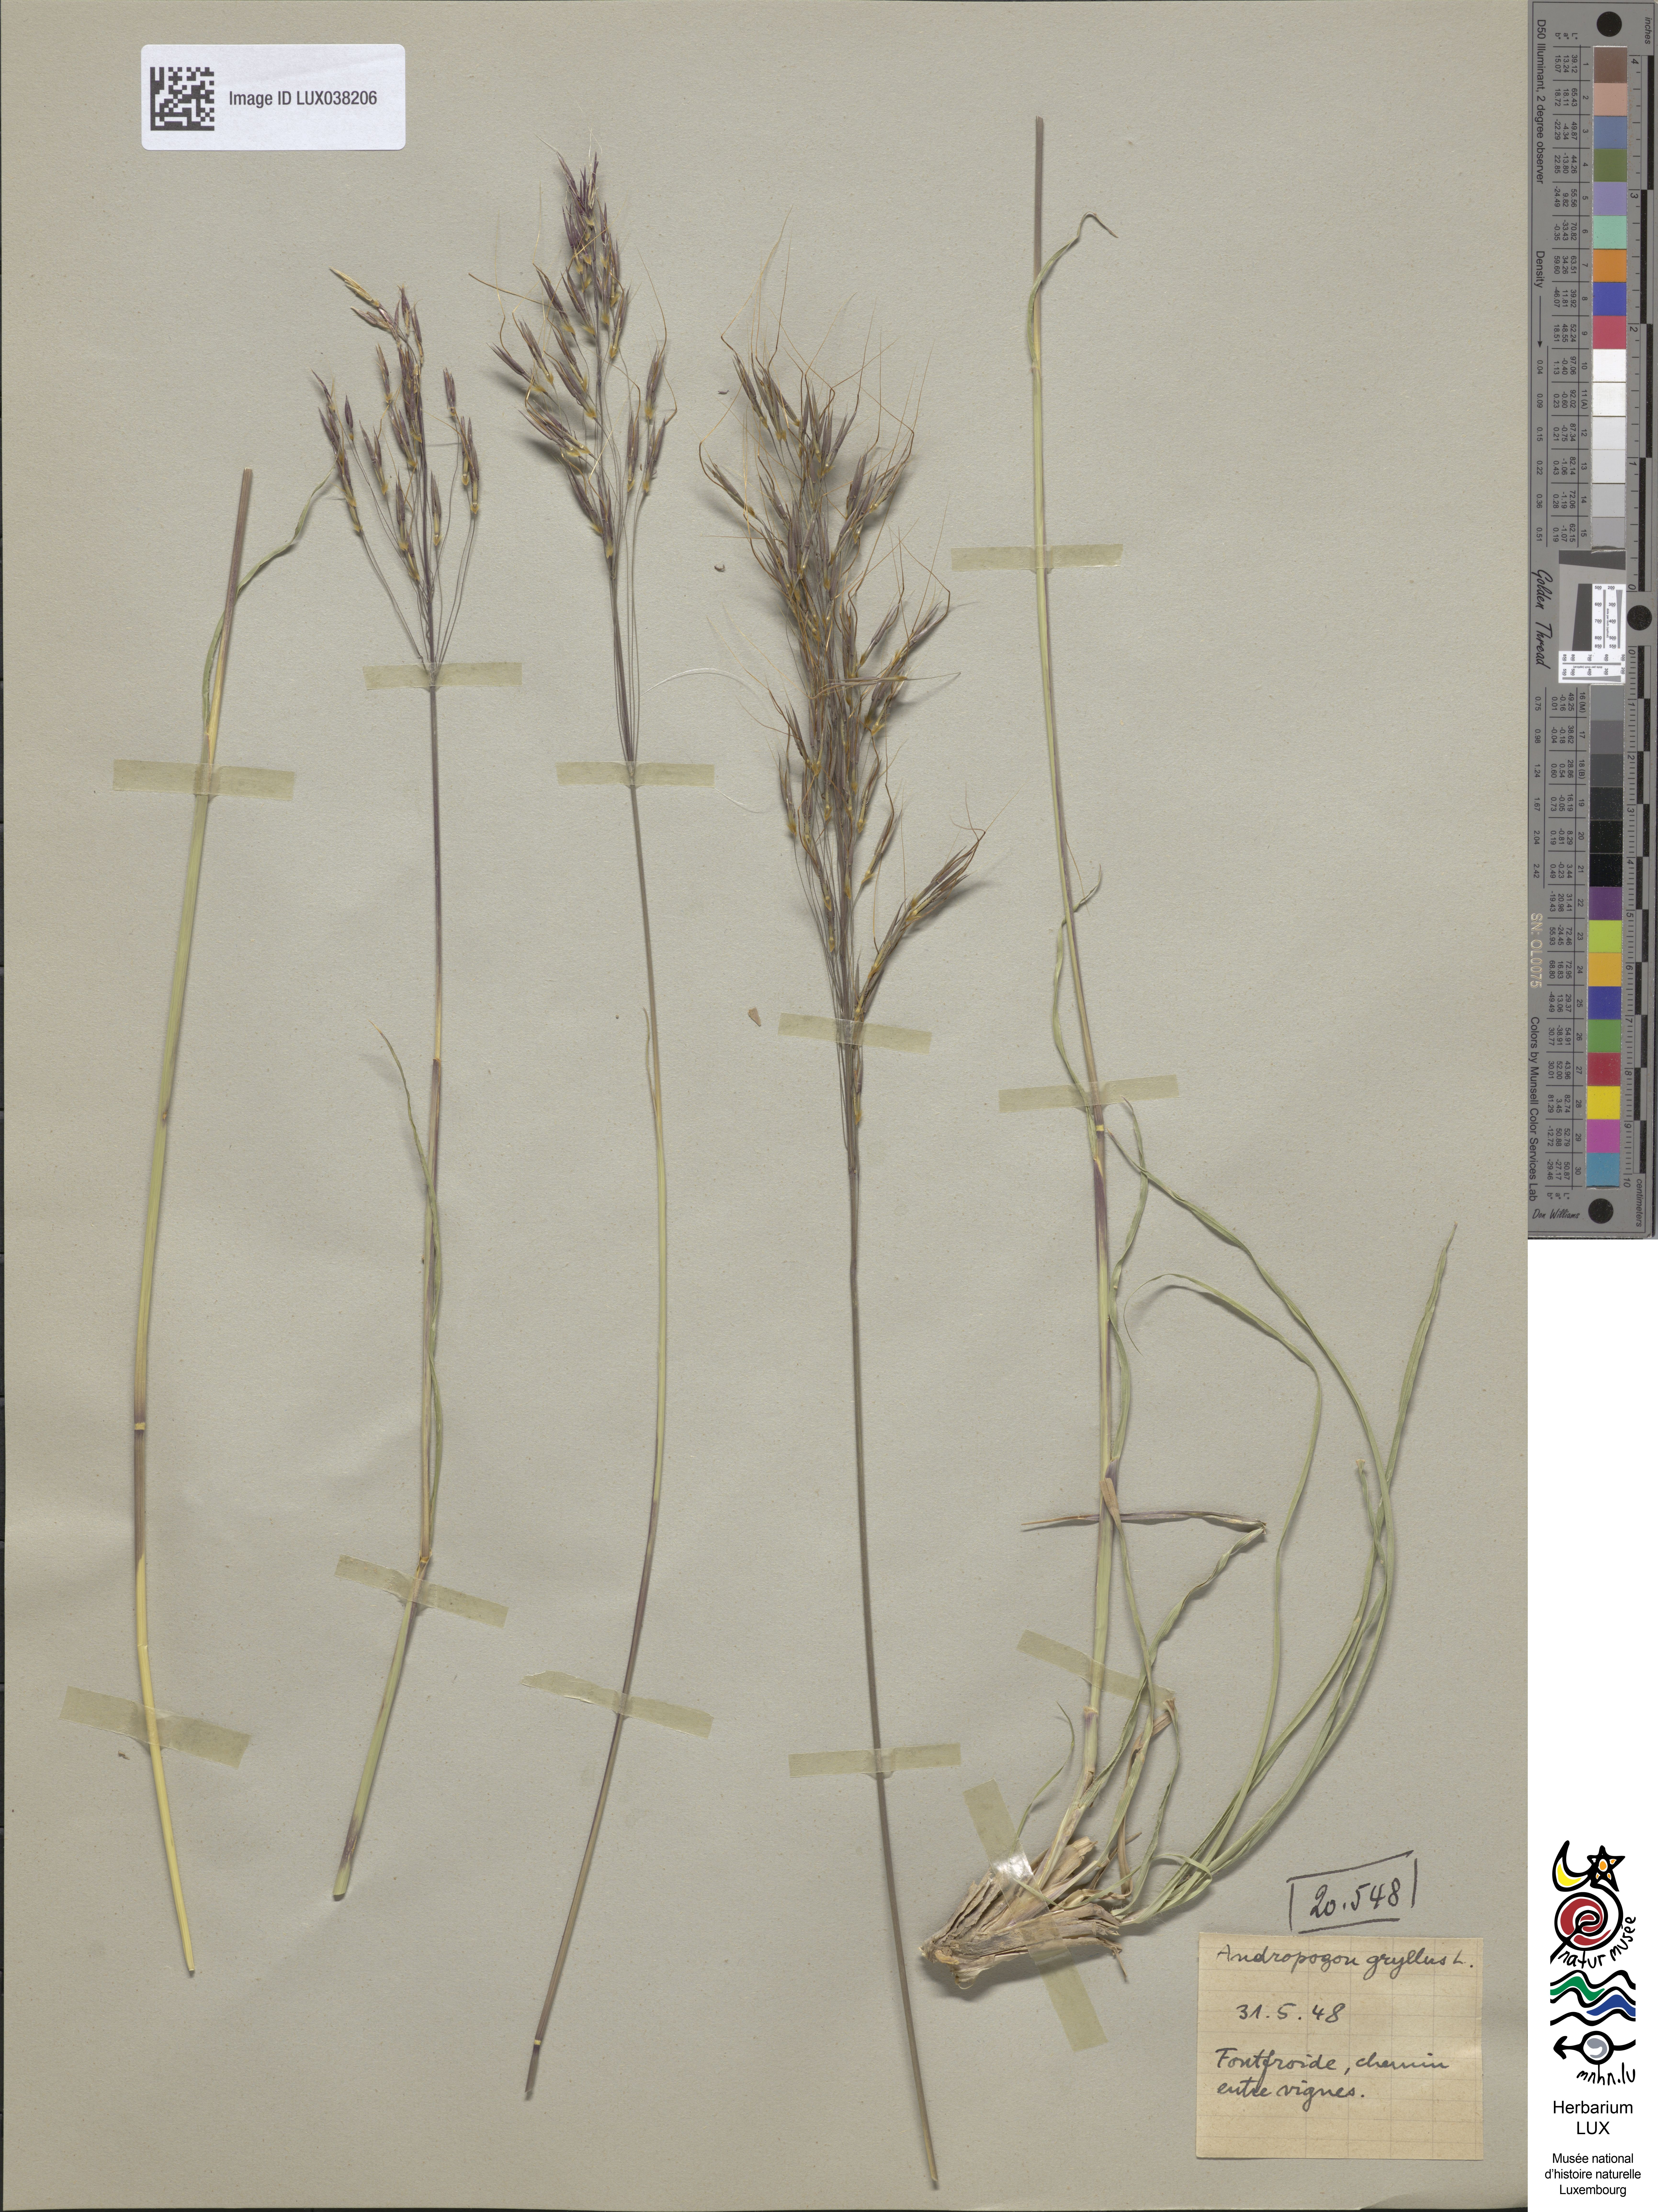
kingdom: Plantae
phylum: Tracheophyta
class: Liliopsida
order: Poales
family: Poaceae
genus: Chrysopogon
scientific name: Chrysopogon gryllus
